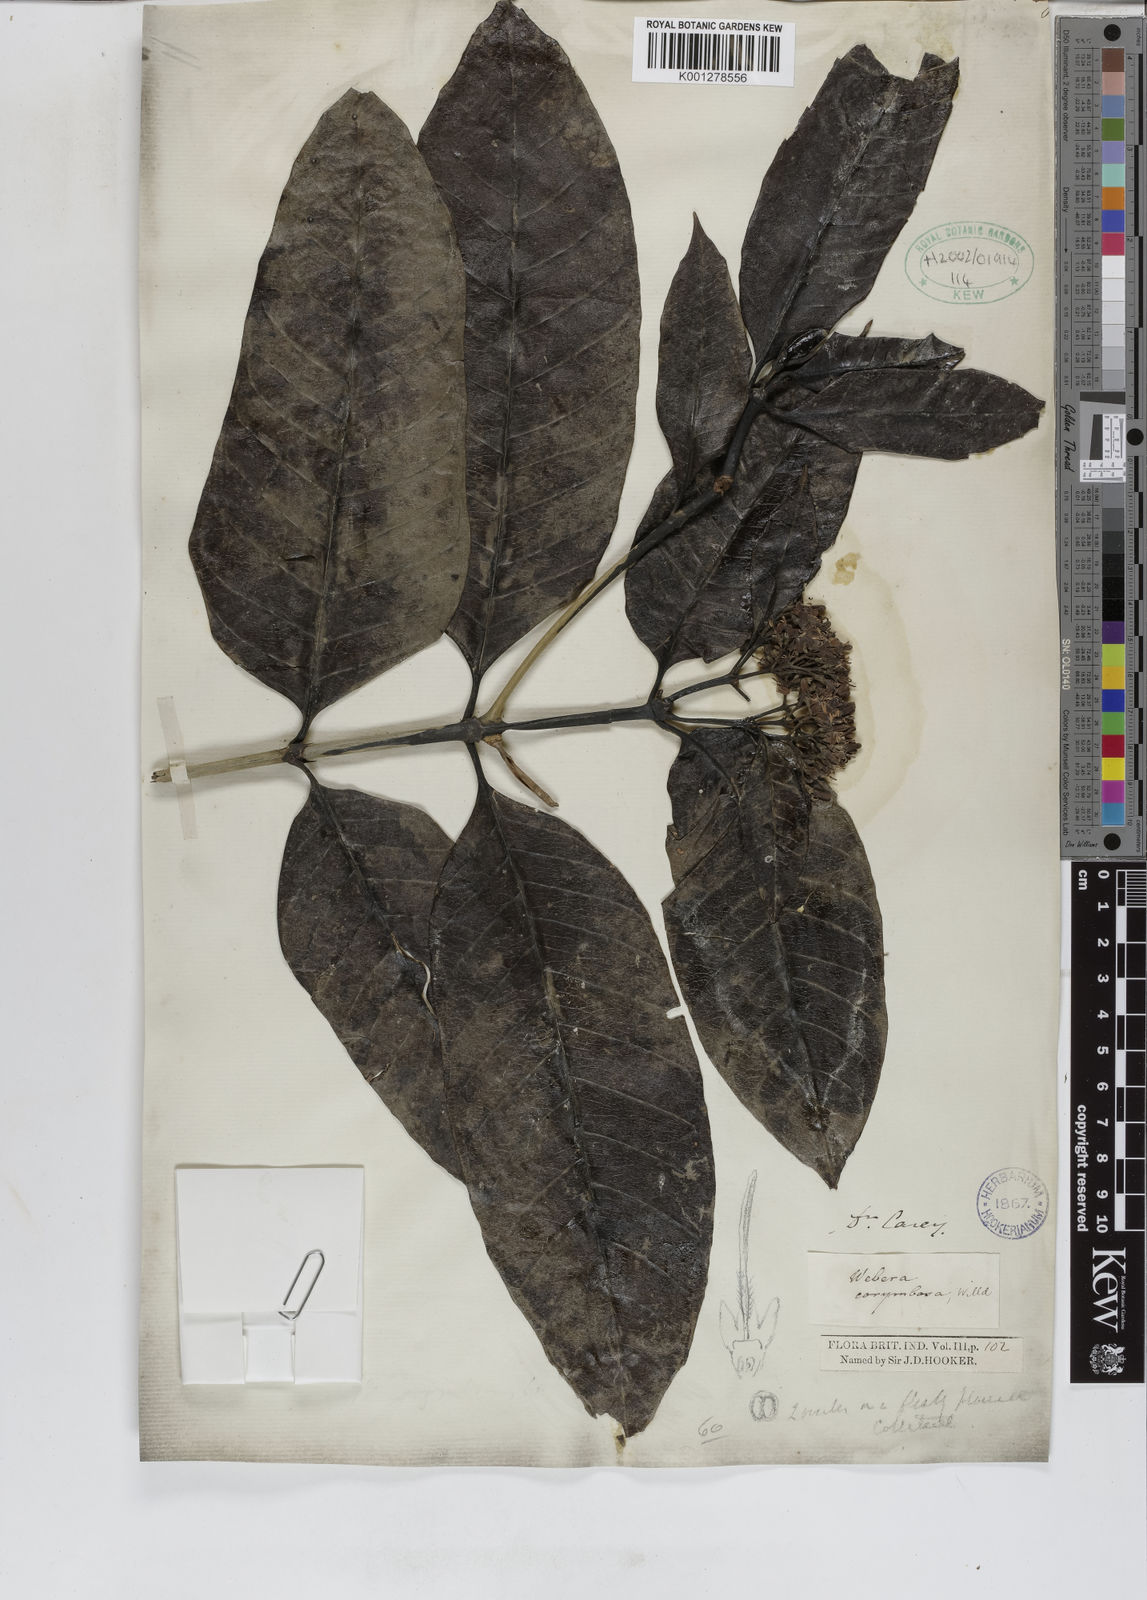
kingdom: Plantae
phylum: Tracheophyta
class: Magnoliopsida
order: Gentianales
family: Rubiaceae
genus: Tarenna
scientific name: Tarenna asiatica
